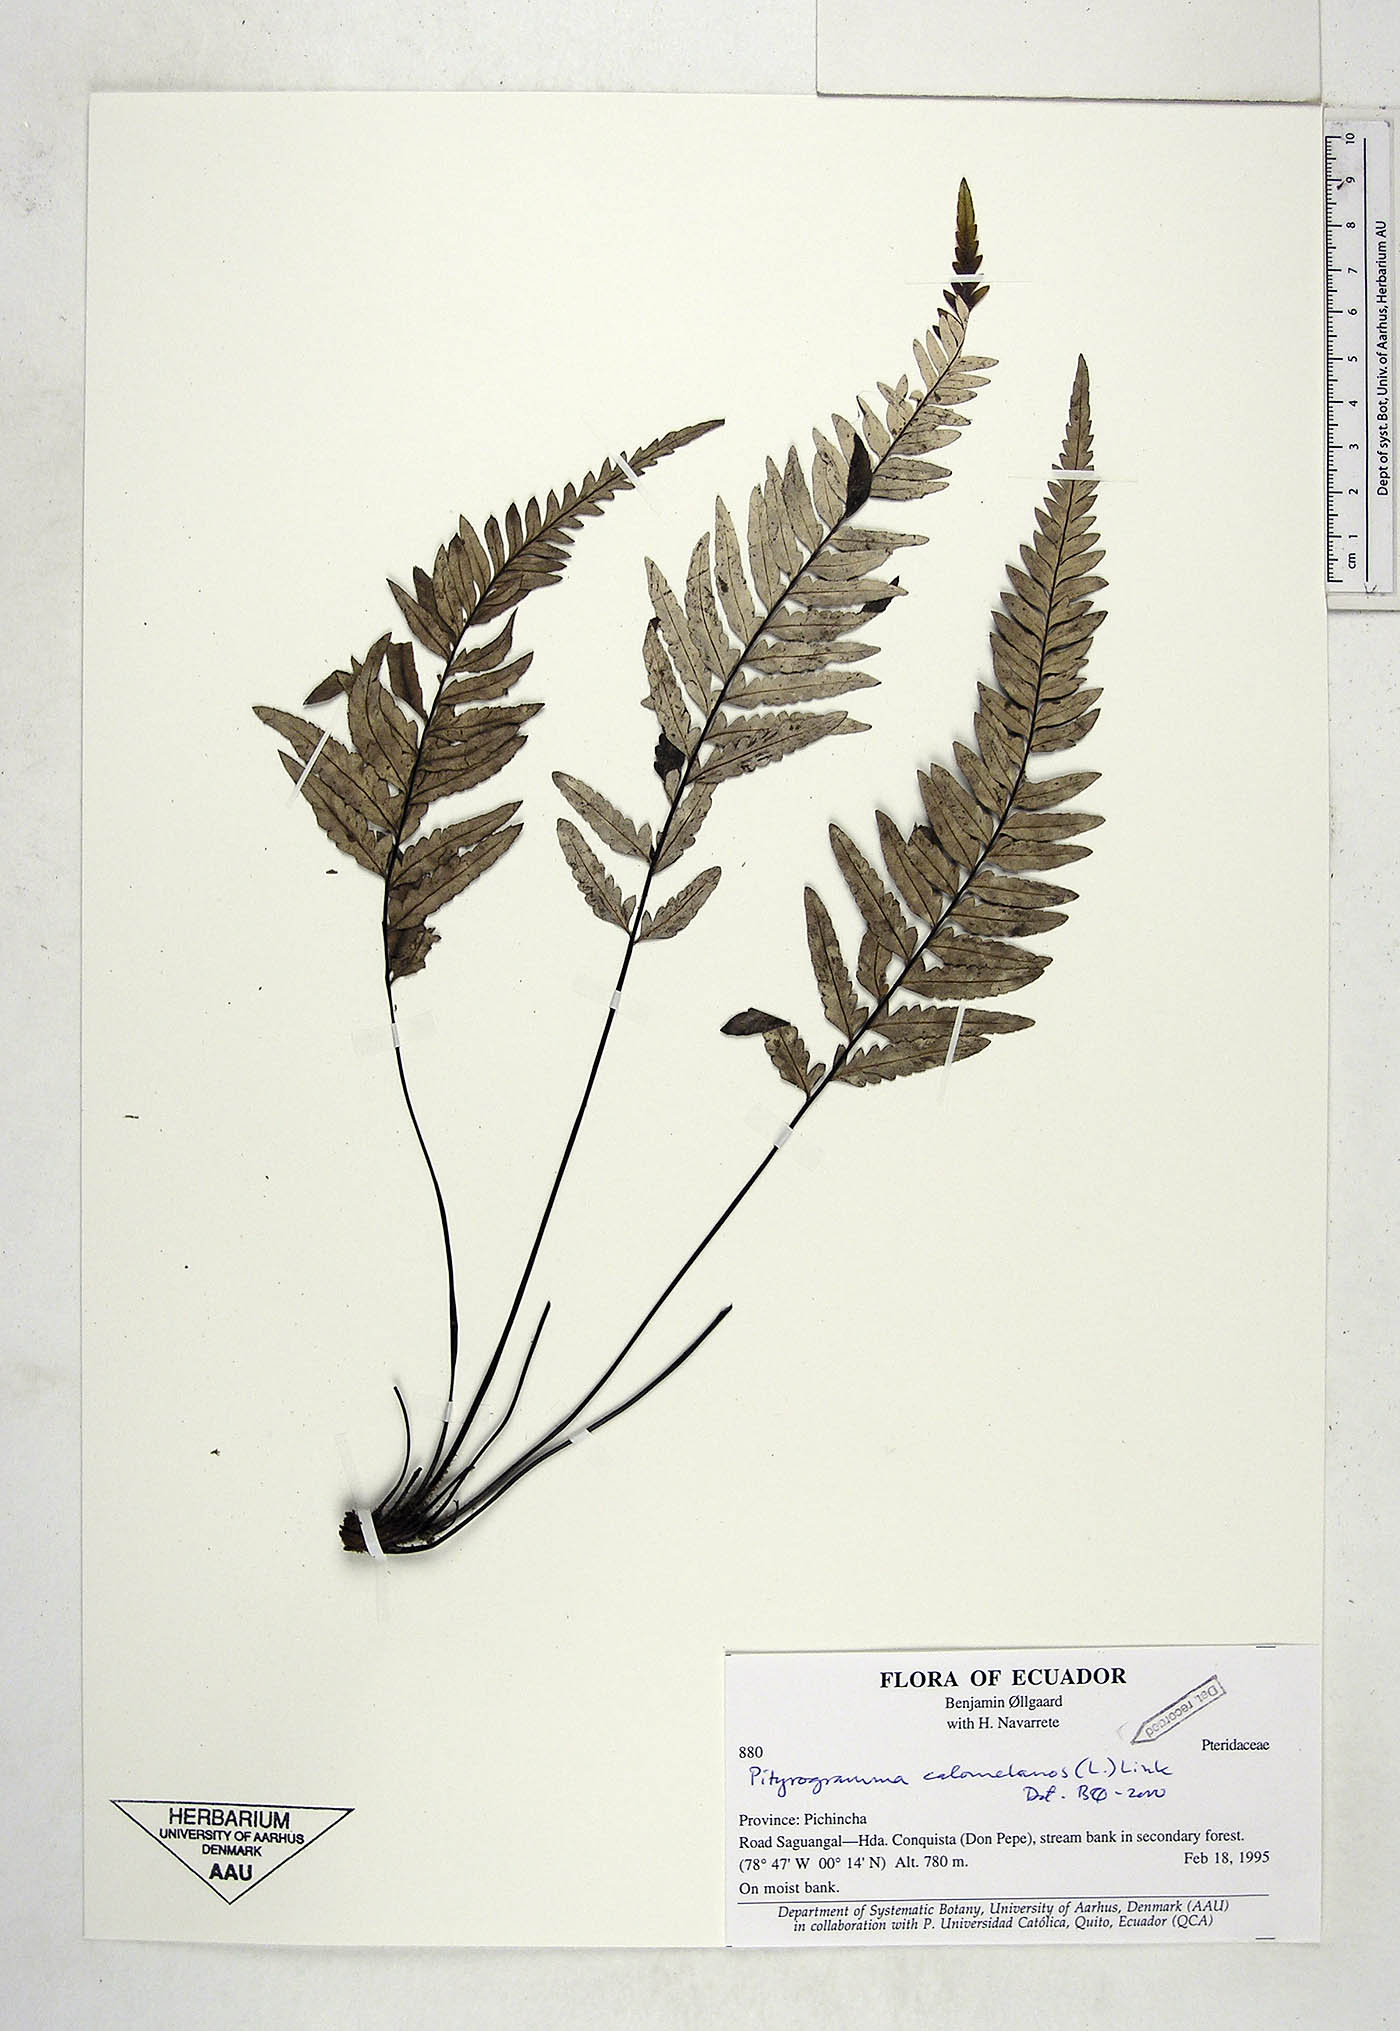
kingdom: Plantae
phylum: Tracheophyta
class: Polypodiopsida
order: Polypodiales
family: Pteridaceae
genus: Pityrogramma
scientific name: Pityrogramma calomelanos
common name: Dixie silverback fern
